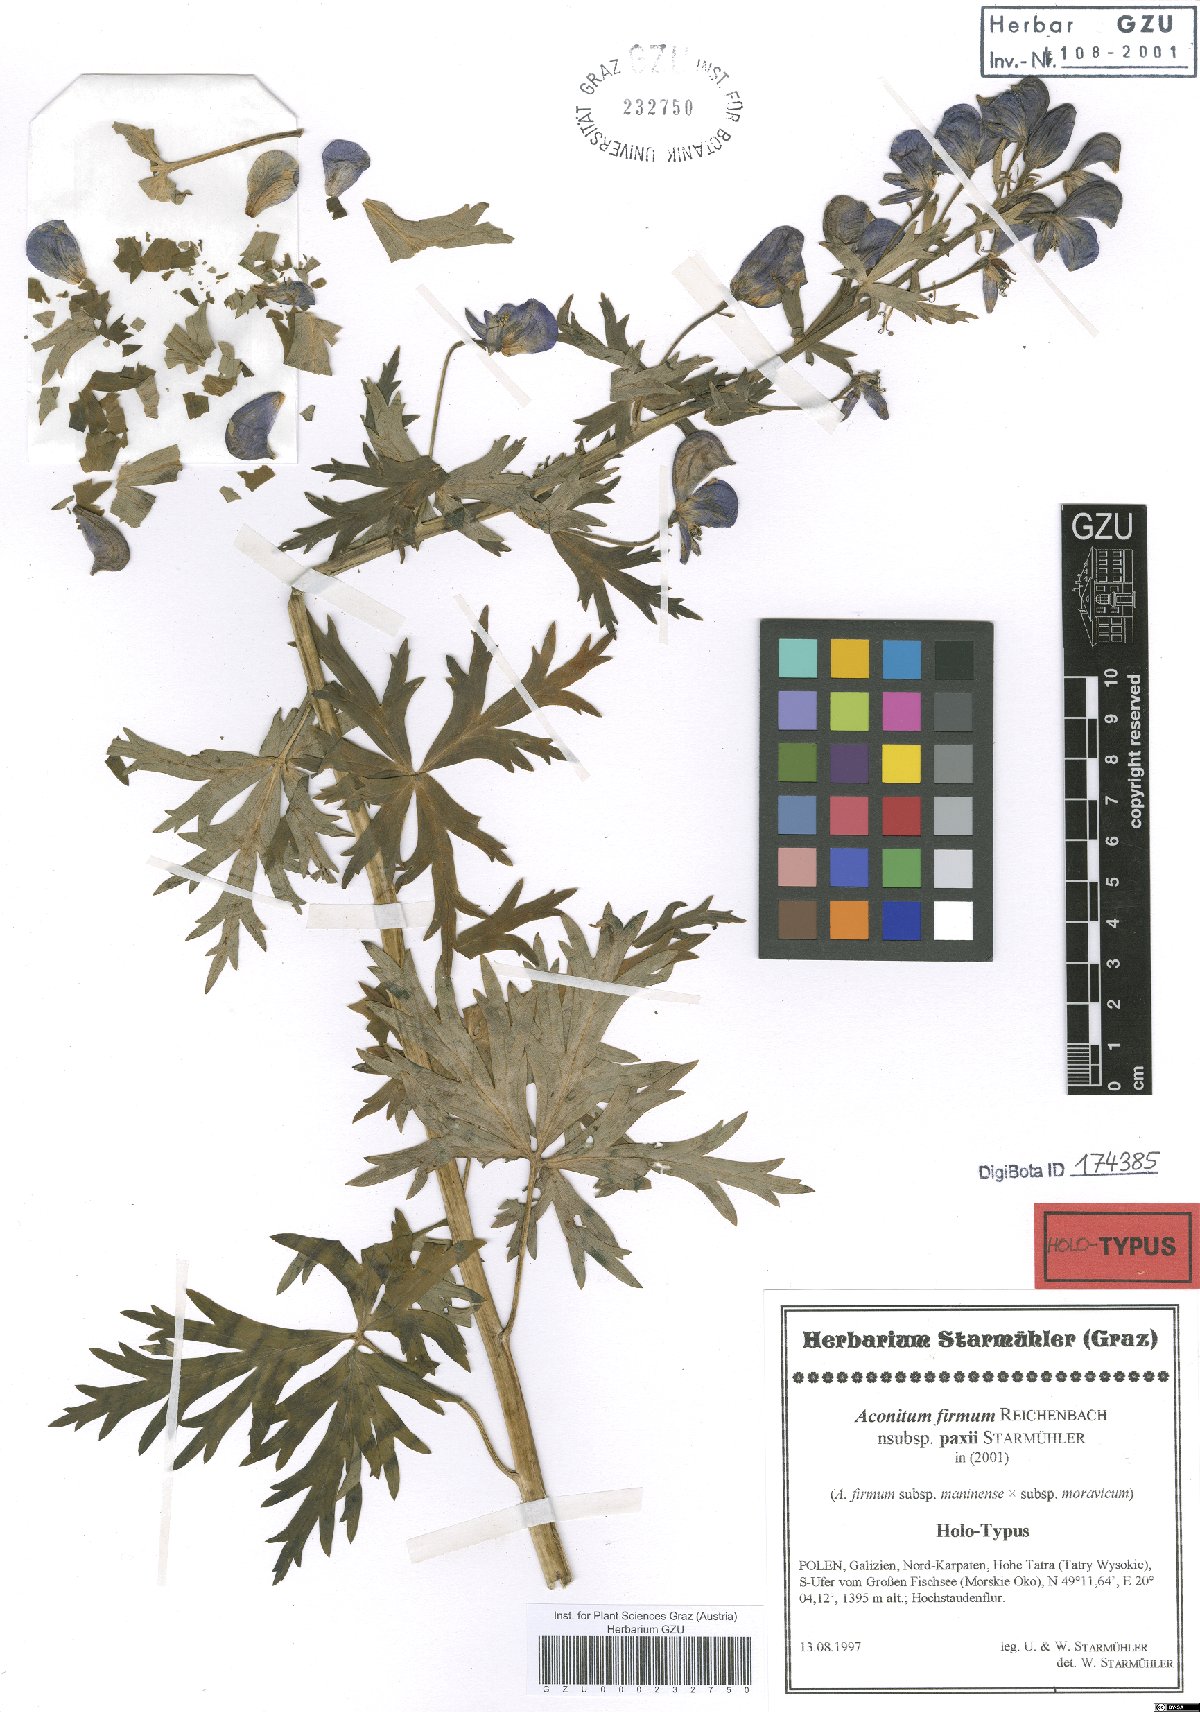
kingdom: Plantae
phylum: Tracheophyta
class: Magnoliopsida
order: Ranunculales
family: Ranunculaceae
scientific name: Ranunculaceae
